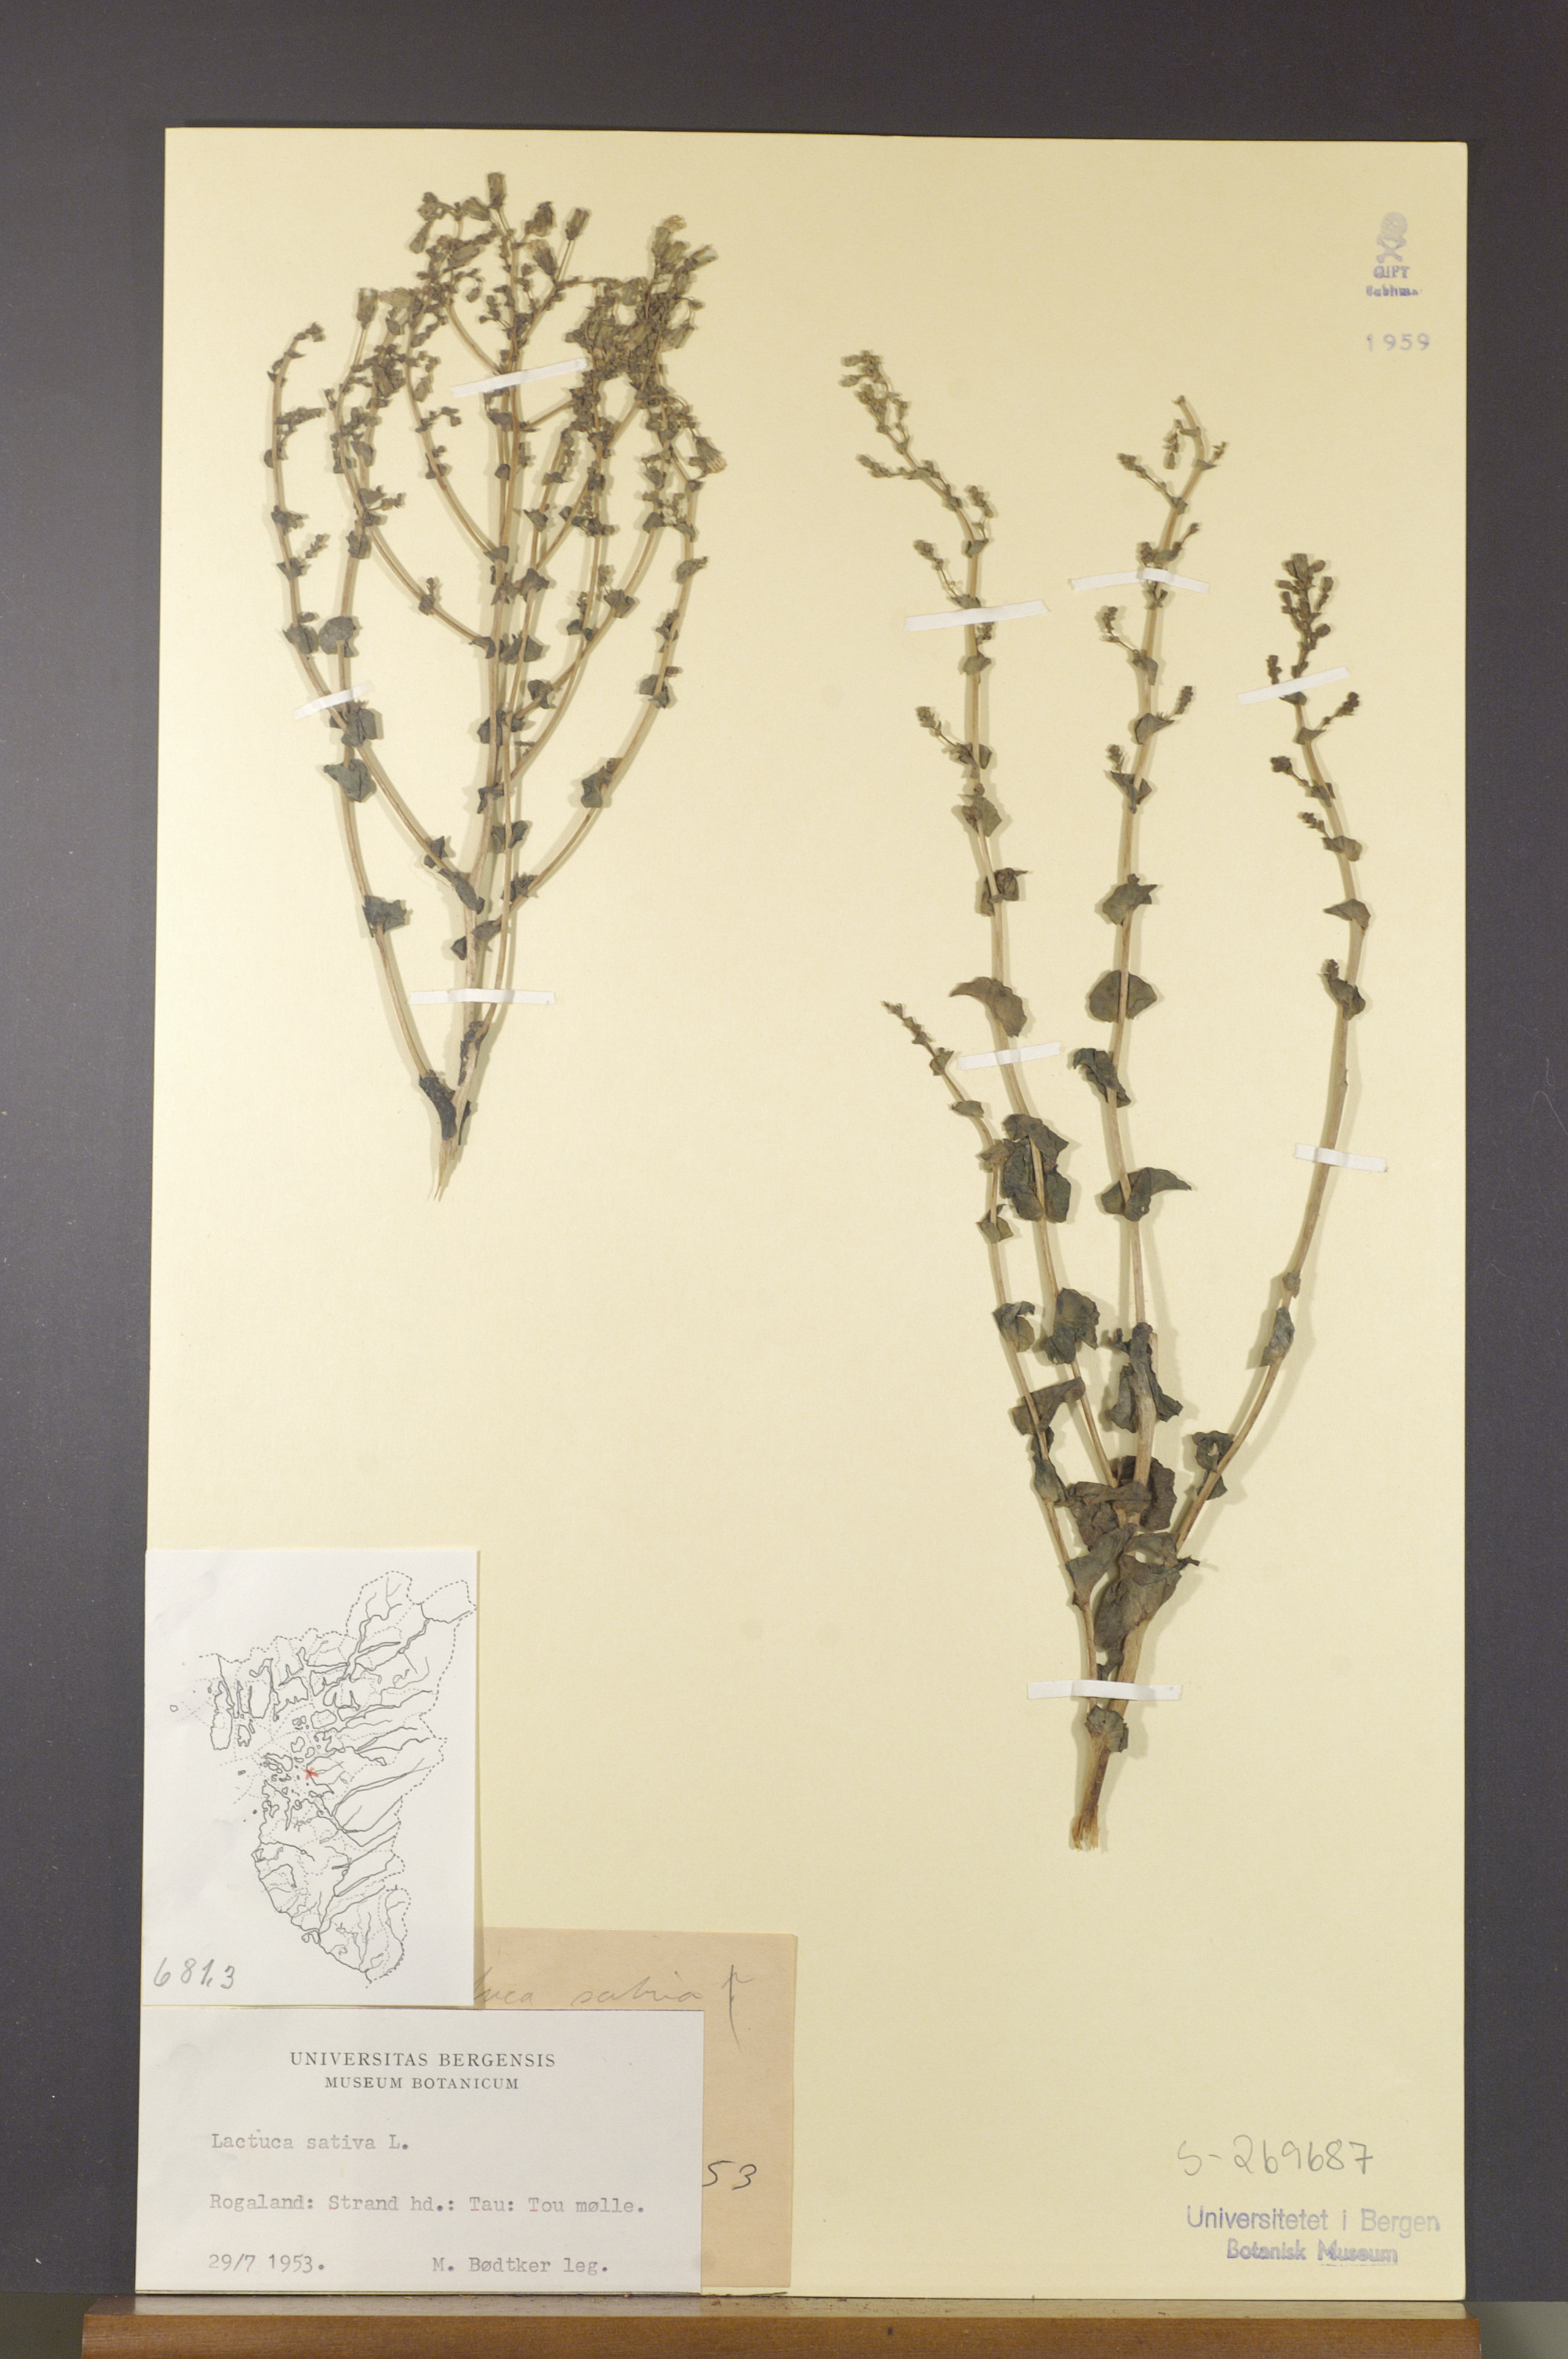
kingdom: Plantae
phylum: Tracheophyta
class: Magnoliopsida
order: Asterales
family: Asteraceae
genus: Lactuca
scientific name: Lactuca sativa
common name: Garden lettuce
